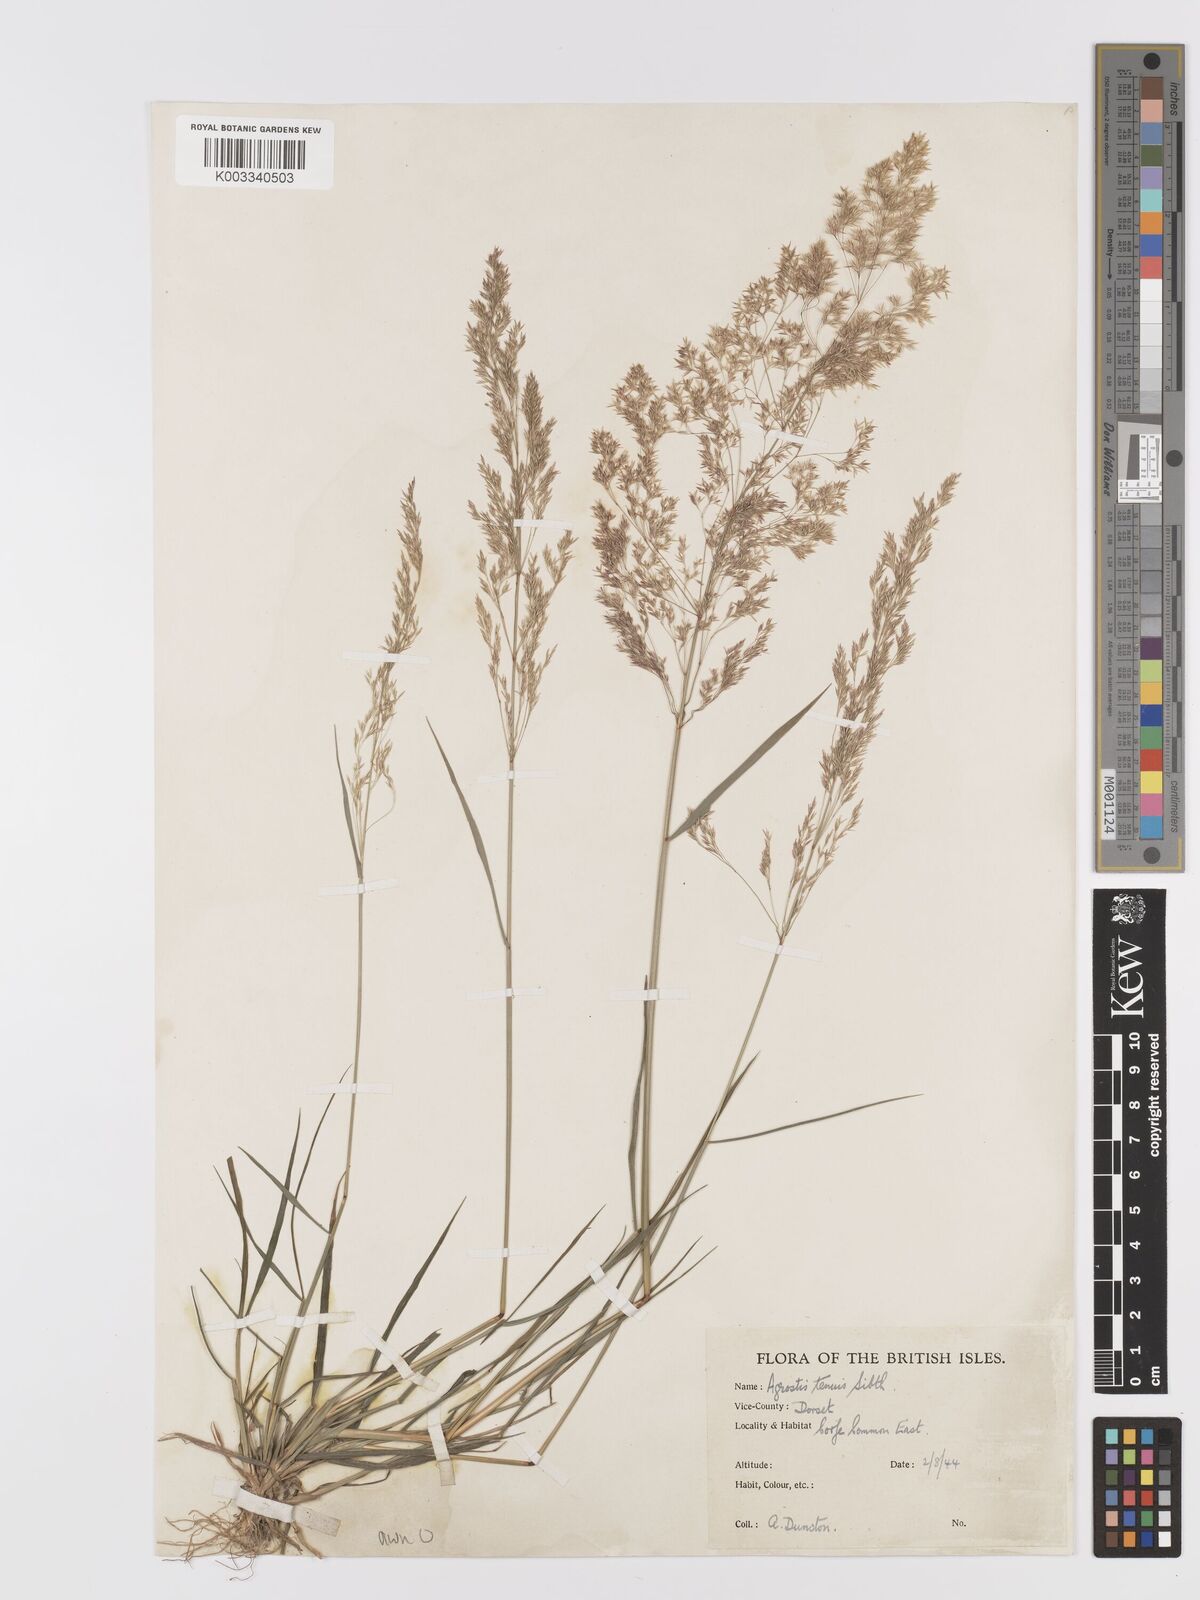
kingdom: Plantae
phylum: Tracheophyta
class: Liliopsida
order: Poales
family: Poaceae
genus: Agrostis
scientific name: Agrostis capillaris
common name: Colonial bentgrass
